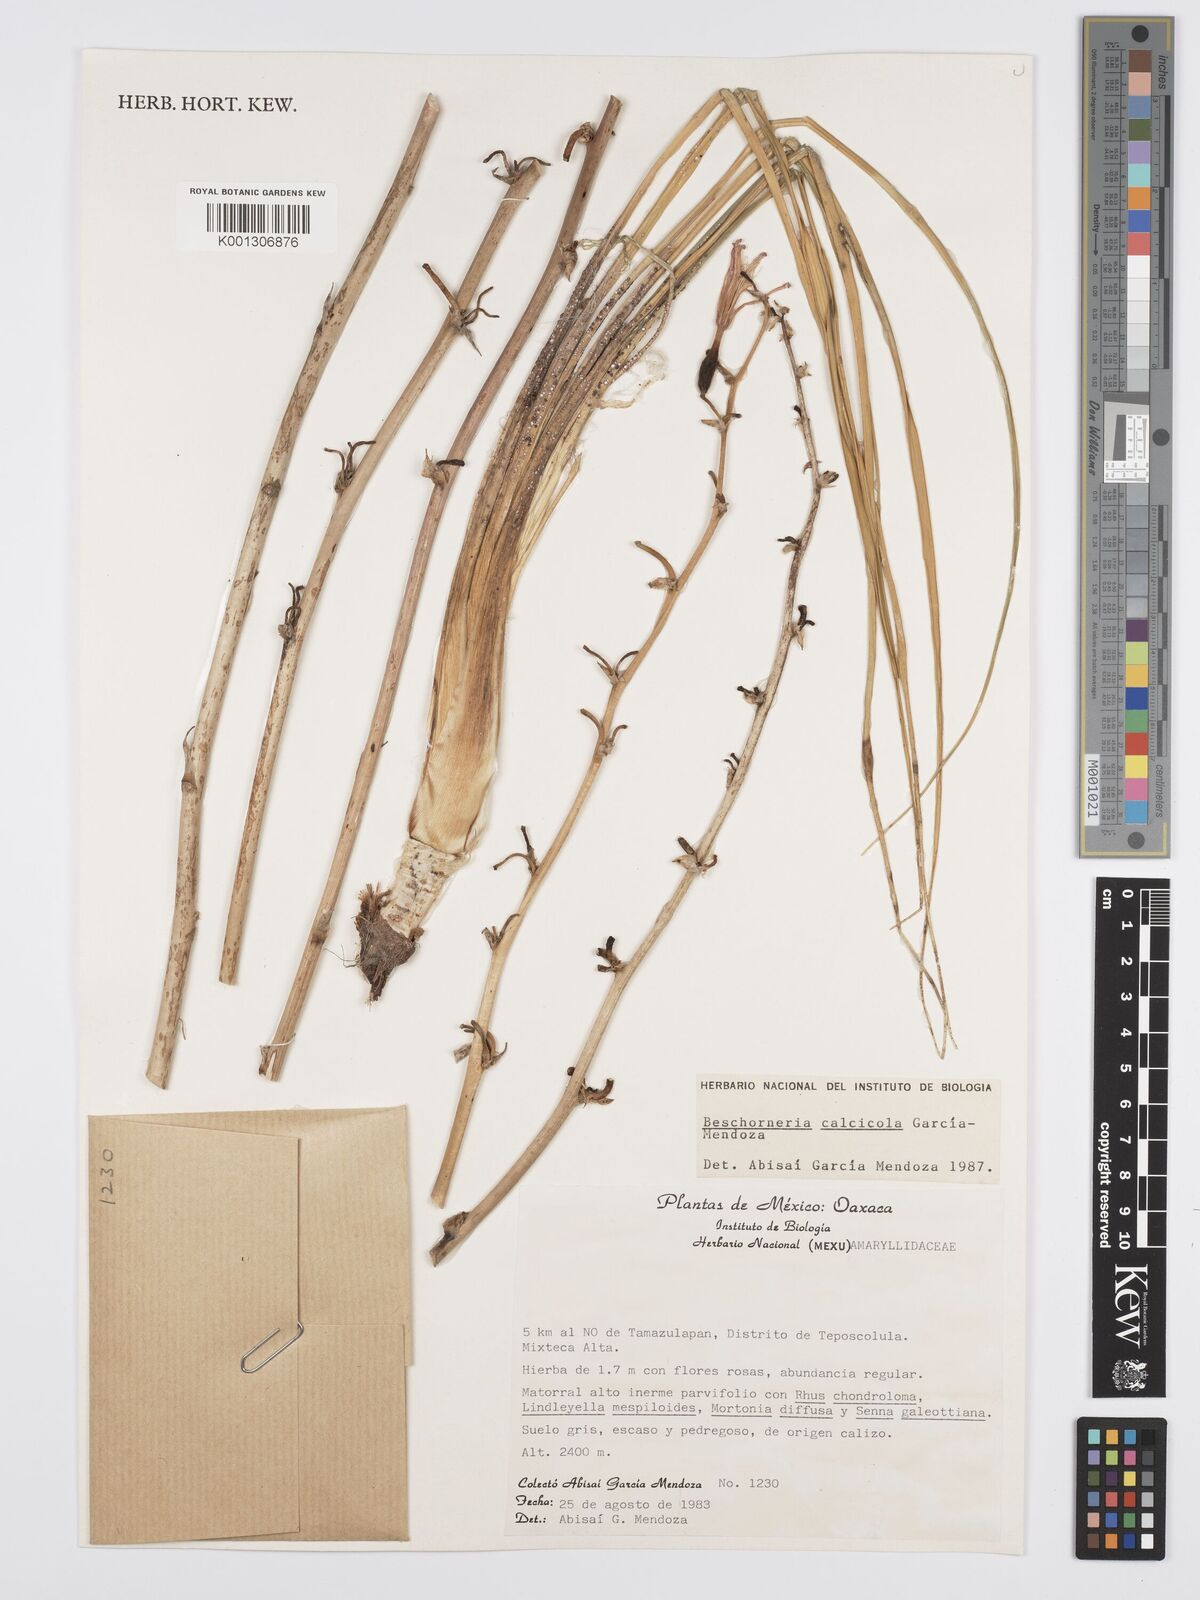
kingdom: Plantae
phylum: Tracheophyta
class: Liliopsida
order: Asparagales
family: Asparagaceae
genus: Beschorneria
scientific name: Beschorneria calcicola
